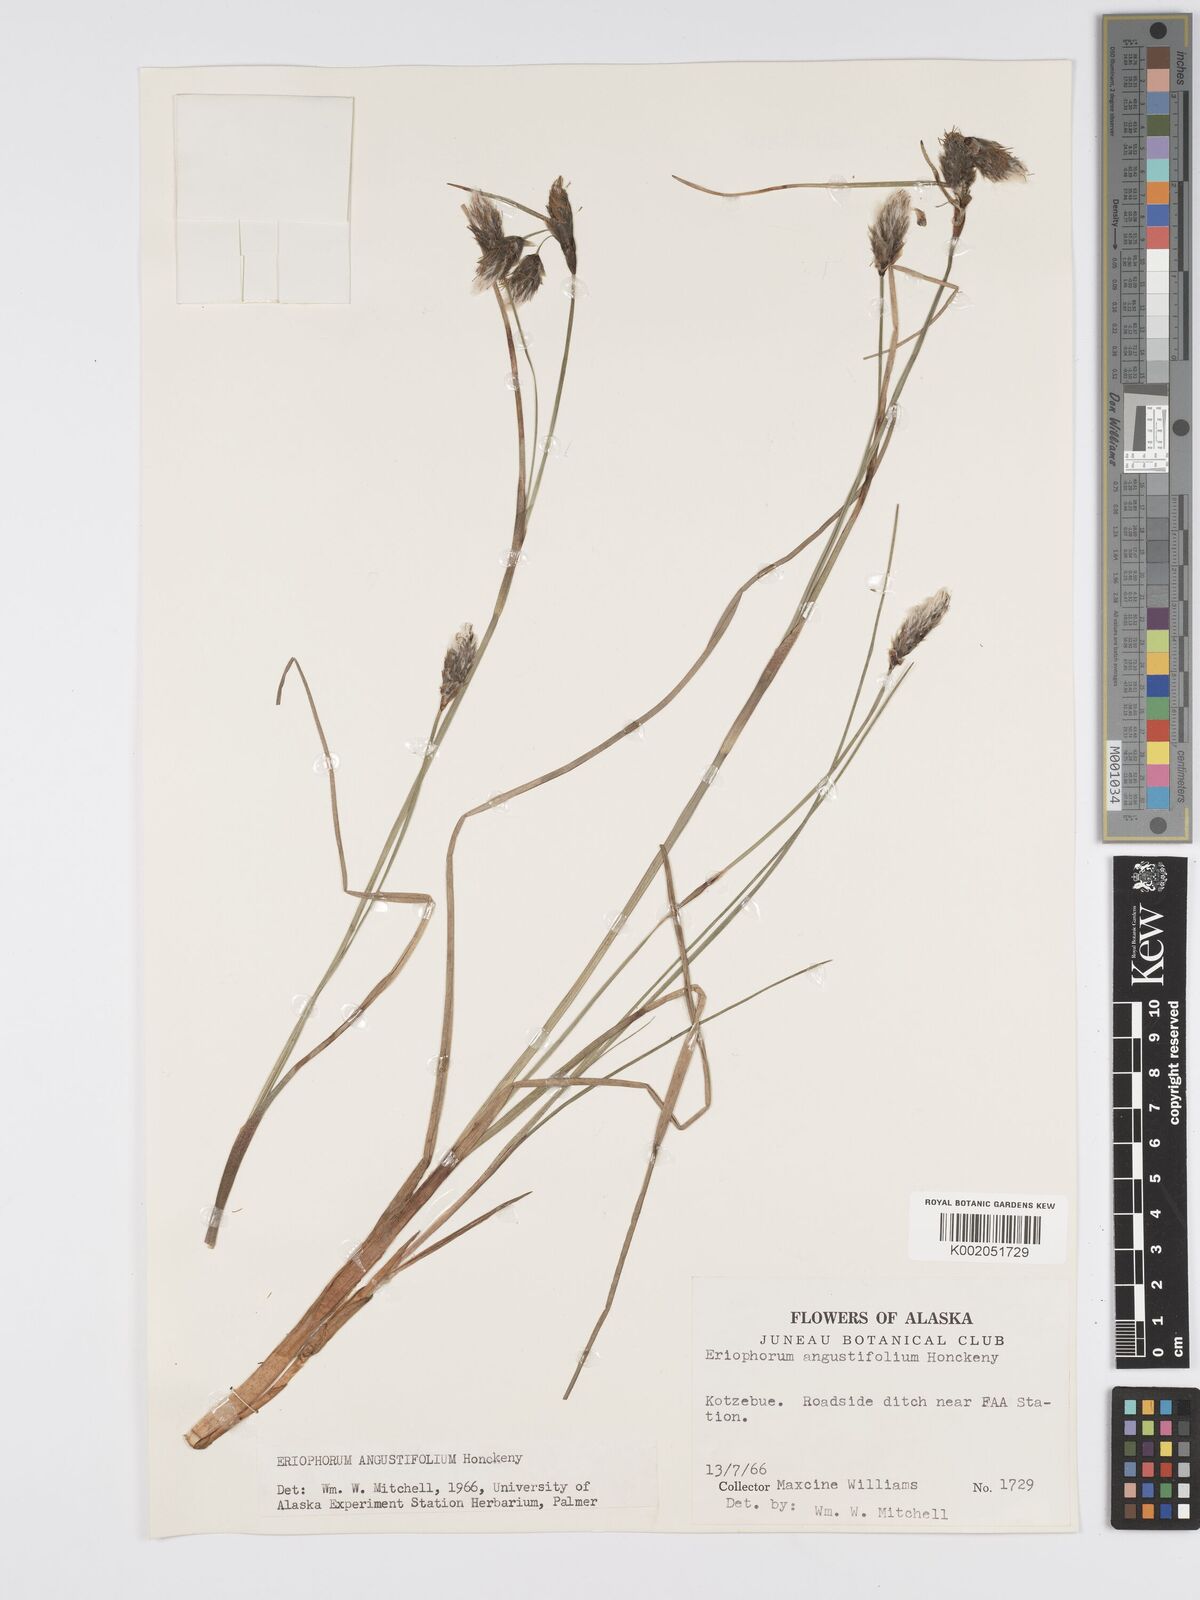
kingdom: Plantae
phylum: Tracheophyta
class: Liliopsida
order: Poales
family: Cyperaceae
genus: Eriophorum
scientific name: Eriophorum angustifolium
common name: Common cottongrass
